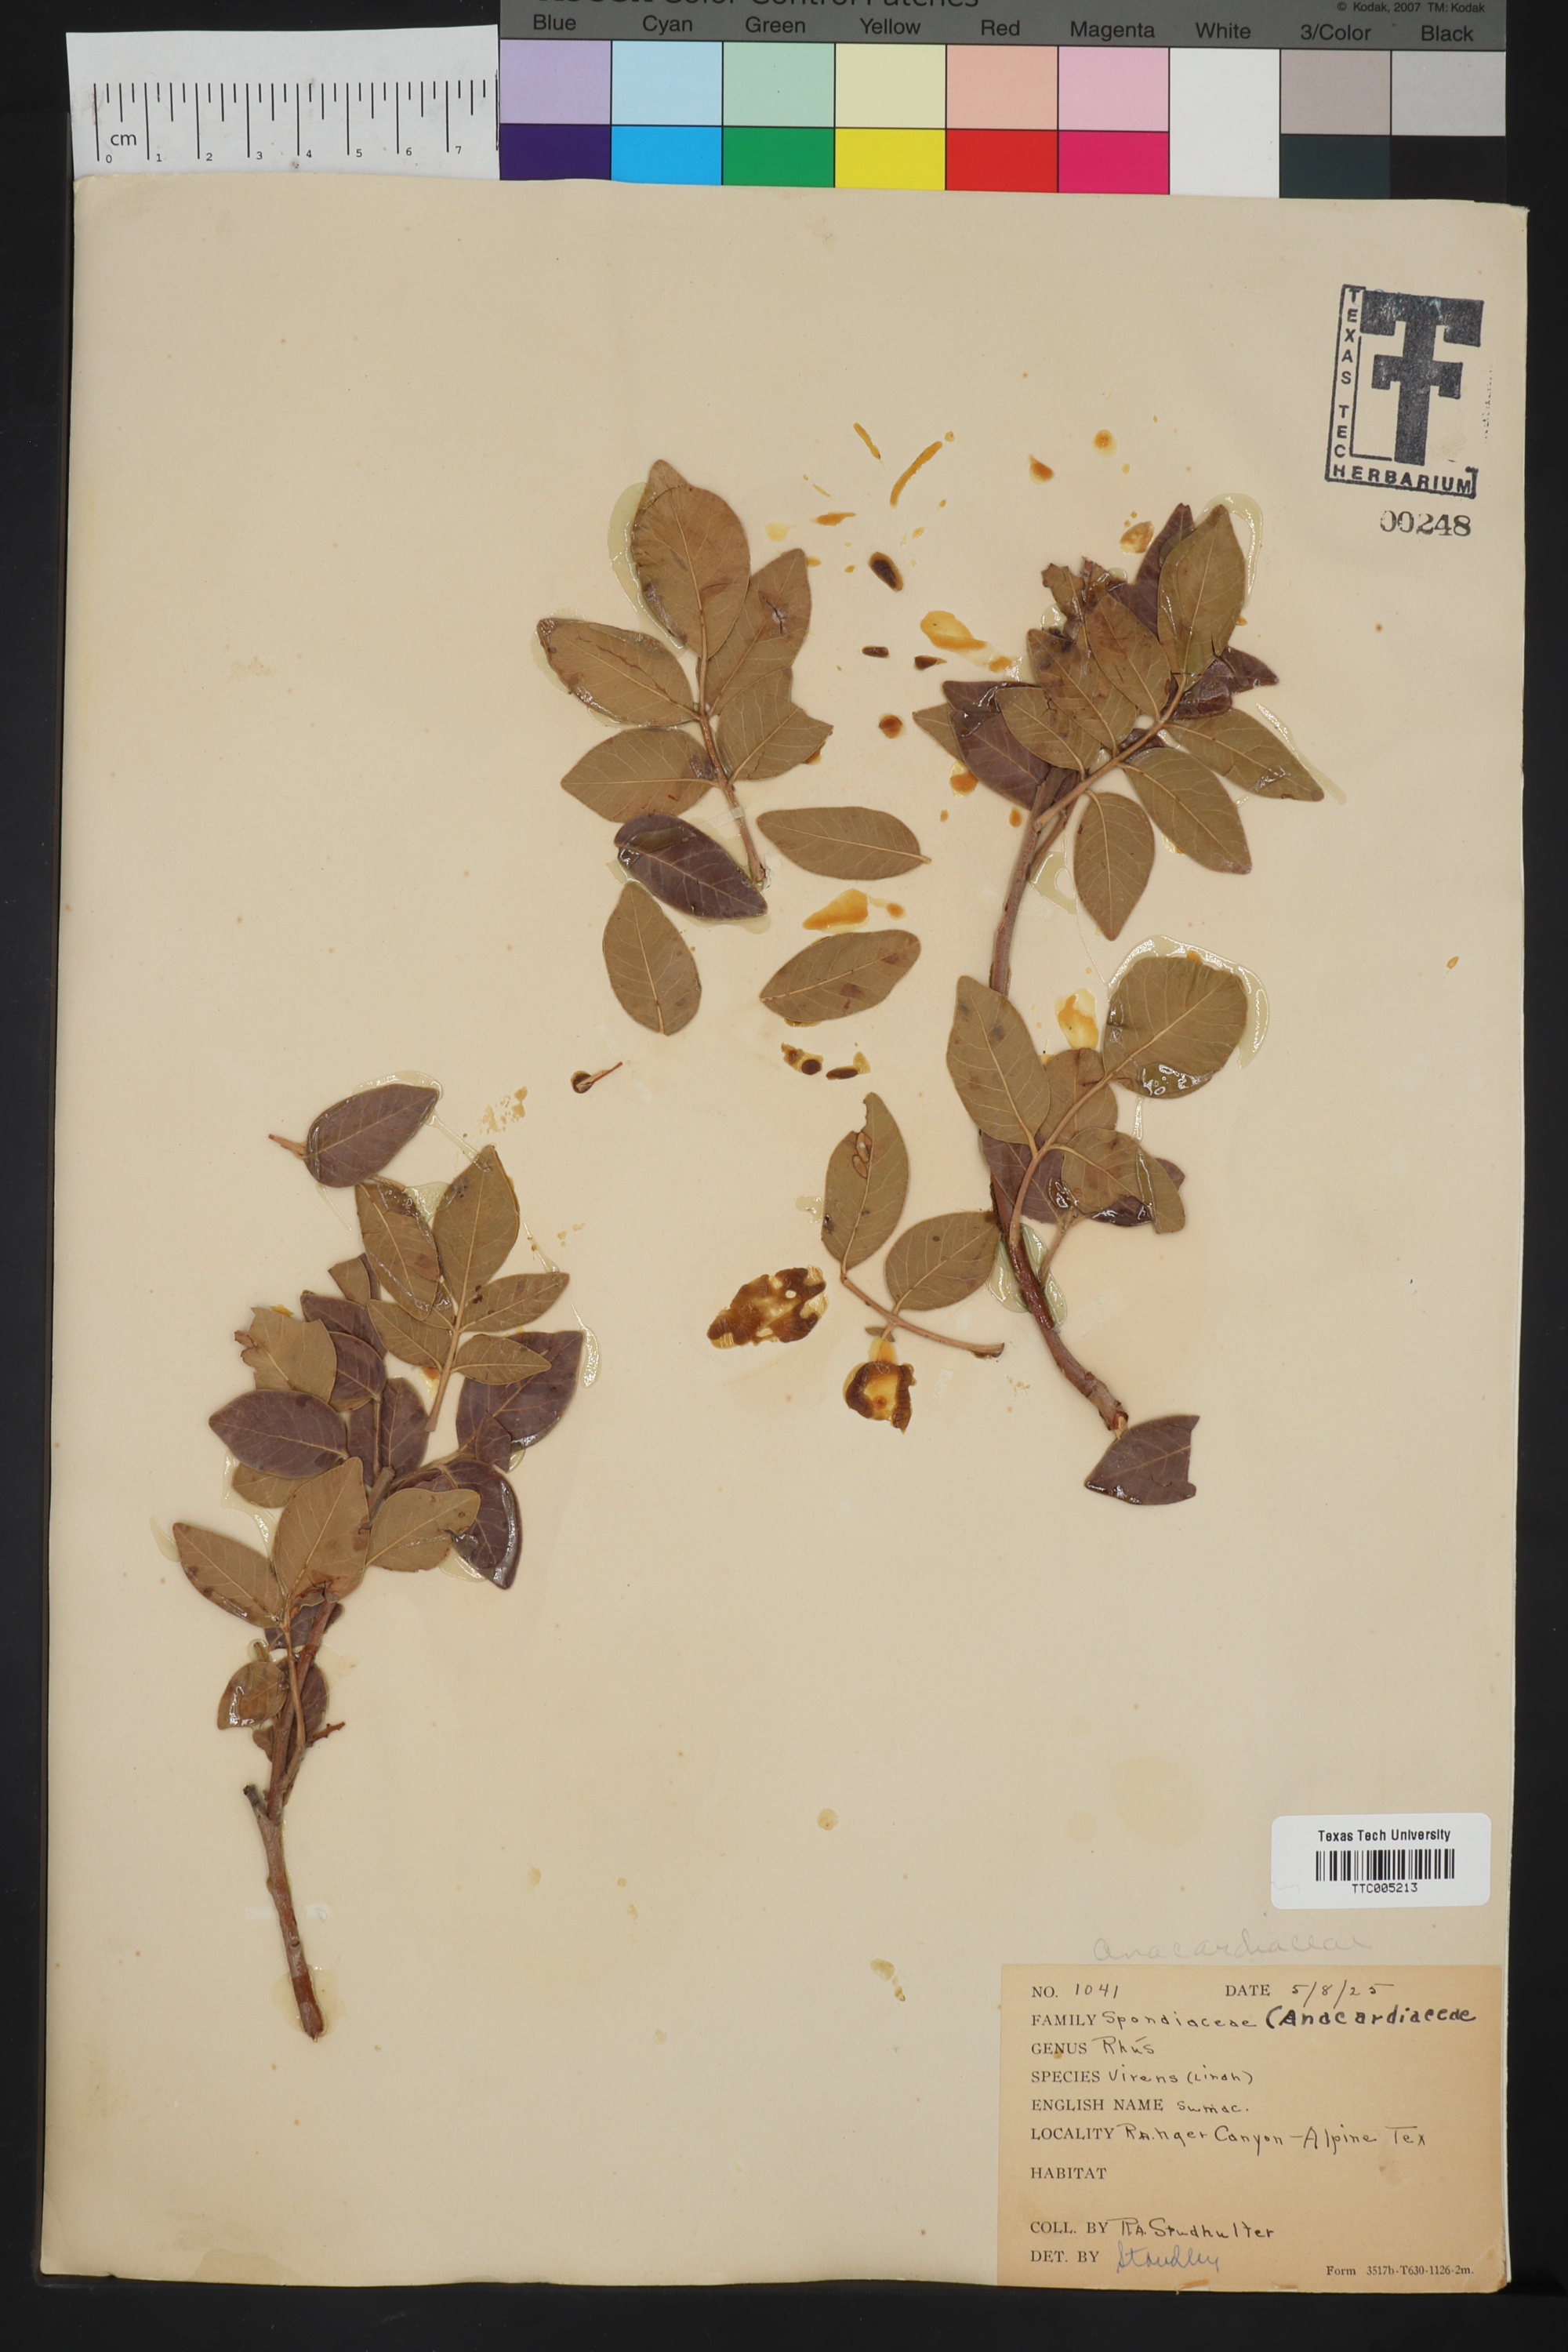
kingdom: Plantae
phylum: Tracheophyta
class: Magnoliopsida
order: Sapindales
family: Anacardiaceae
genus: Rhus
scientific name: Rhus virens
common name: Evergreen sumac
